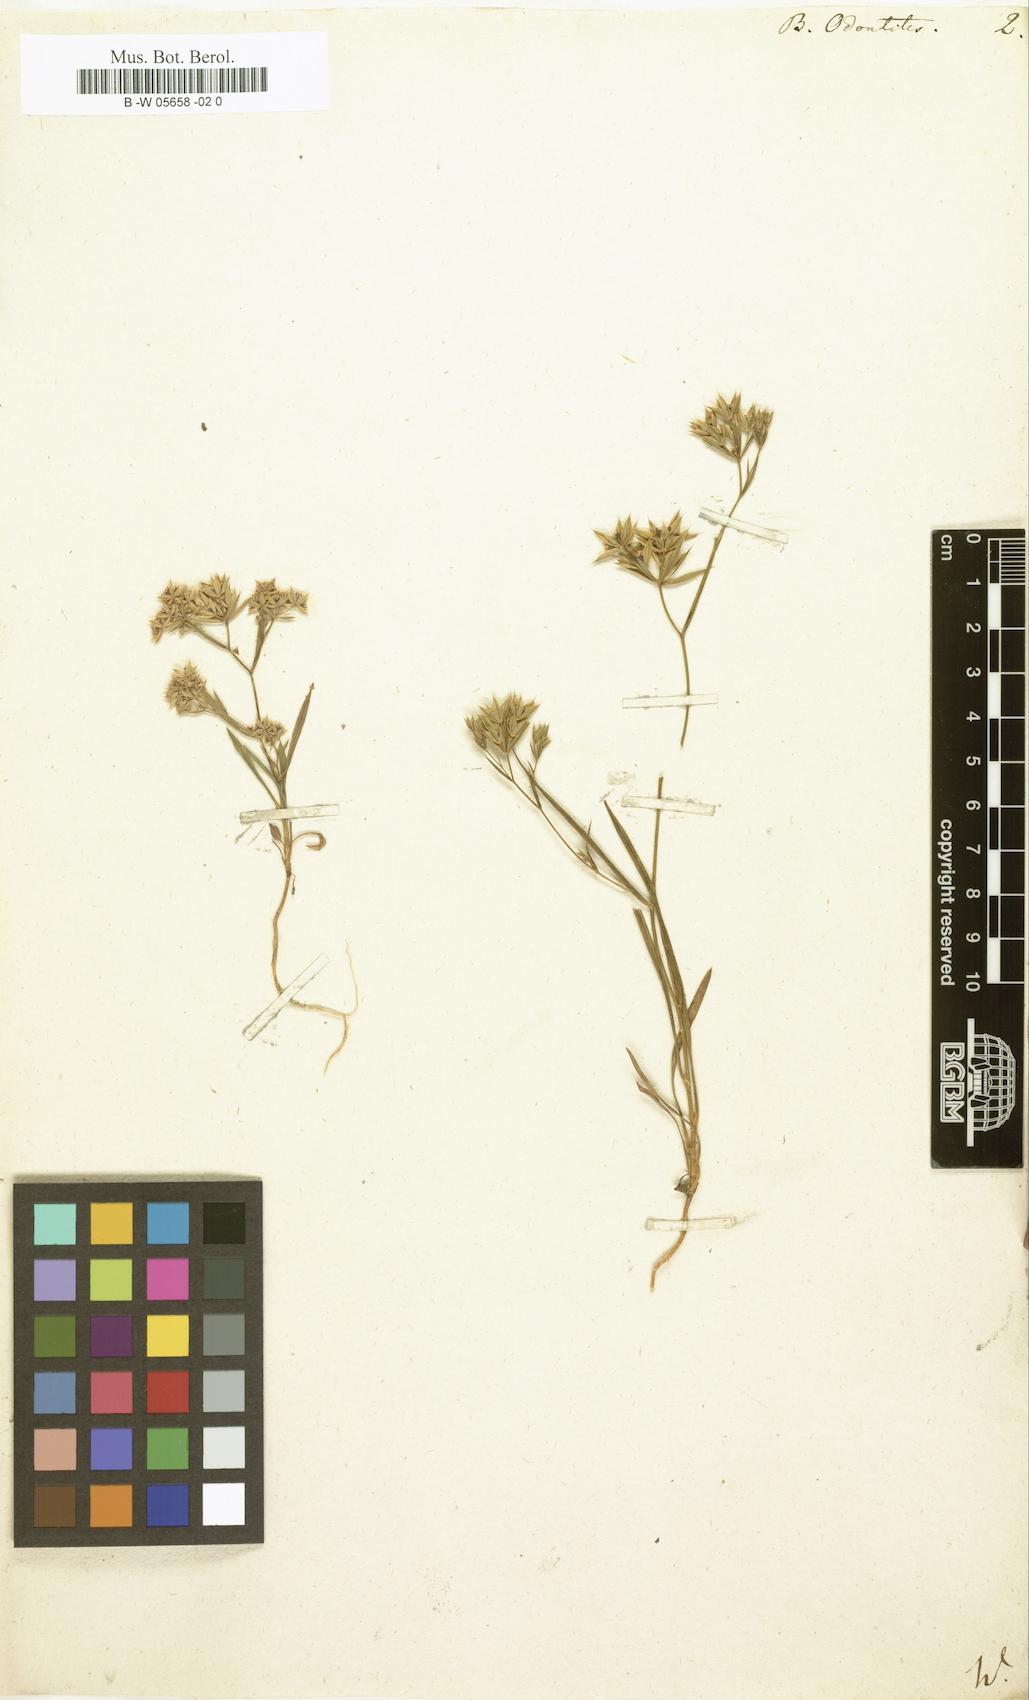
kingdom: Plantae
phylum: Tracheophyta
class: Magnoliopsida
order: Apiales
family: Apiaceae
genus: Bupleurum
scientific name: Bupleurum odontites
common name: Narrowleaf thorow wax
